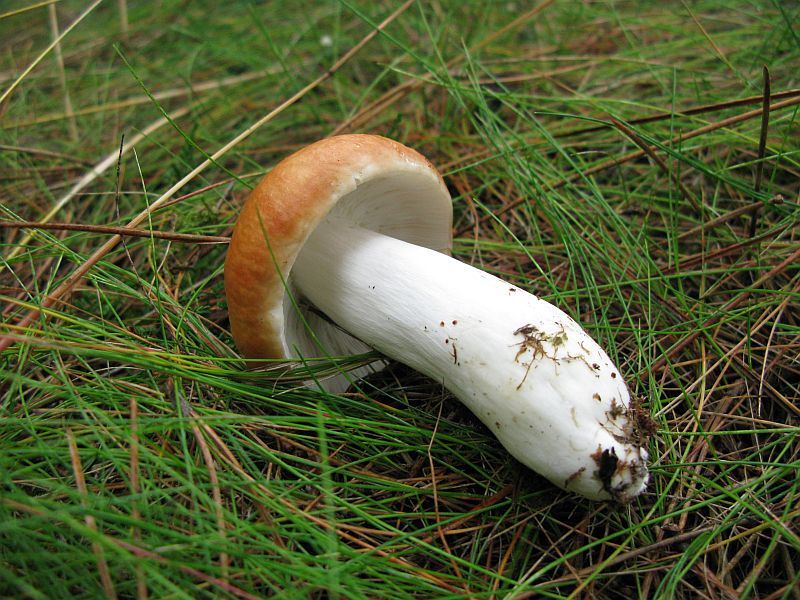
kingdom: Fungi
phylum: Basidiomycota
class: Agaricomycetes
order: Russulales
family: Russulaceae
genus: Russula
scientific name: Russula paludosa
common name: prægtig skørhat
